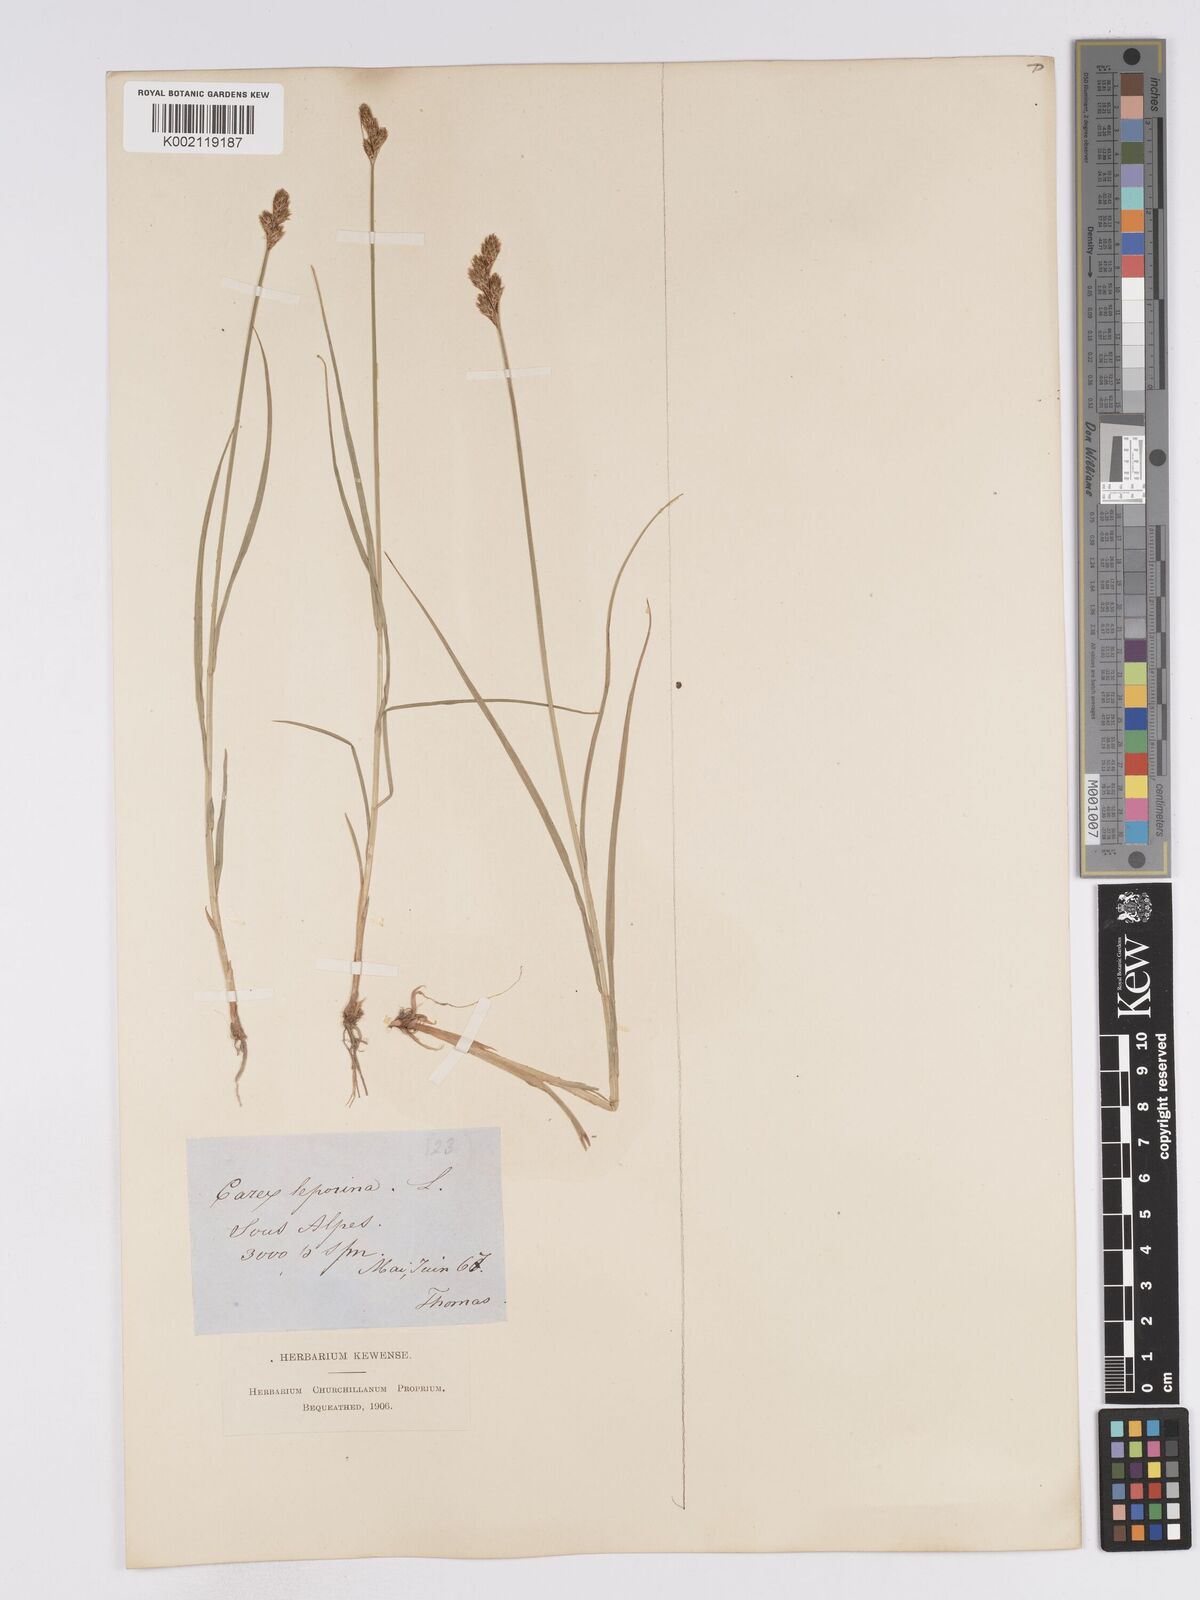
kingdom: Plantae
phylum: Tracheophyta
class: Liliopsida
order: Poales
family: Cyperaceae
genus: Carex
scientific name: Carex leporina
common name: Oval sedge
